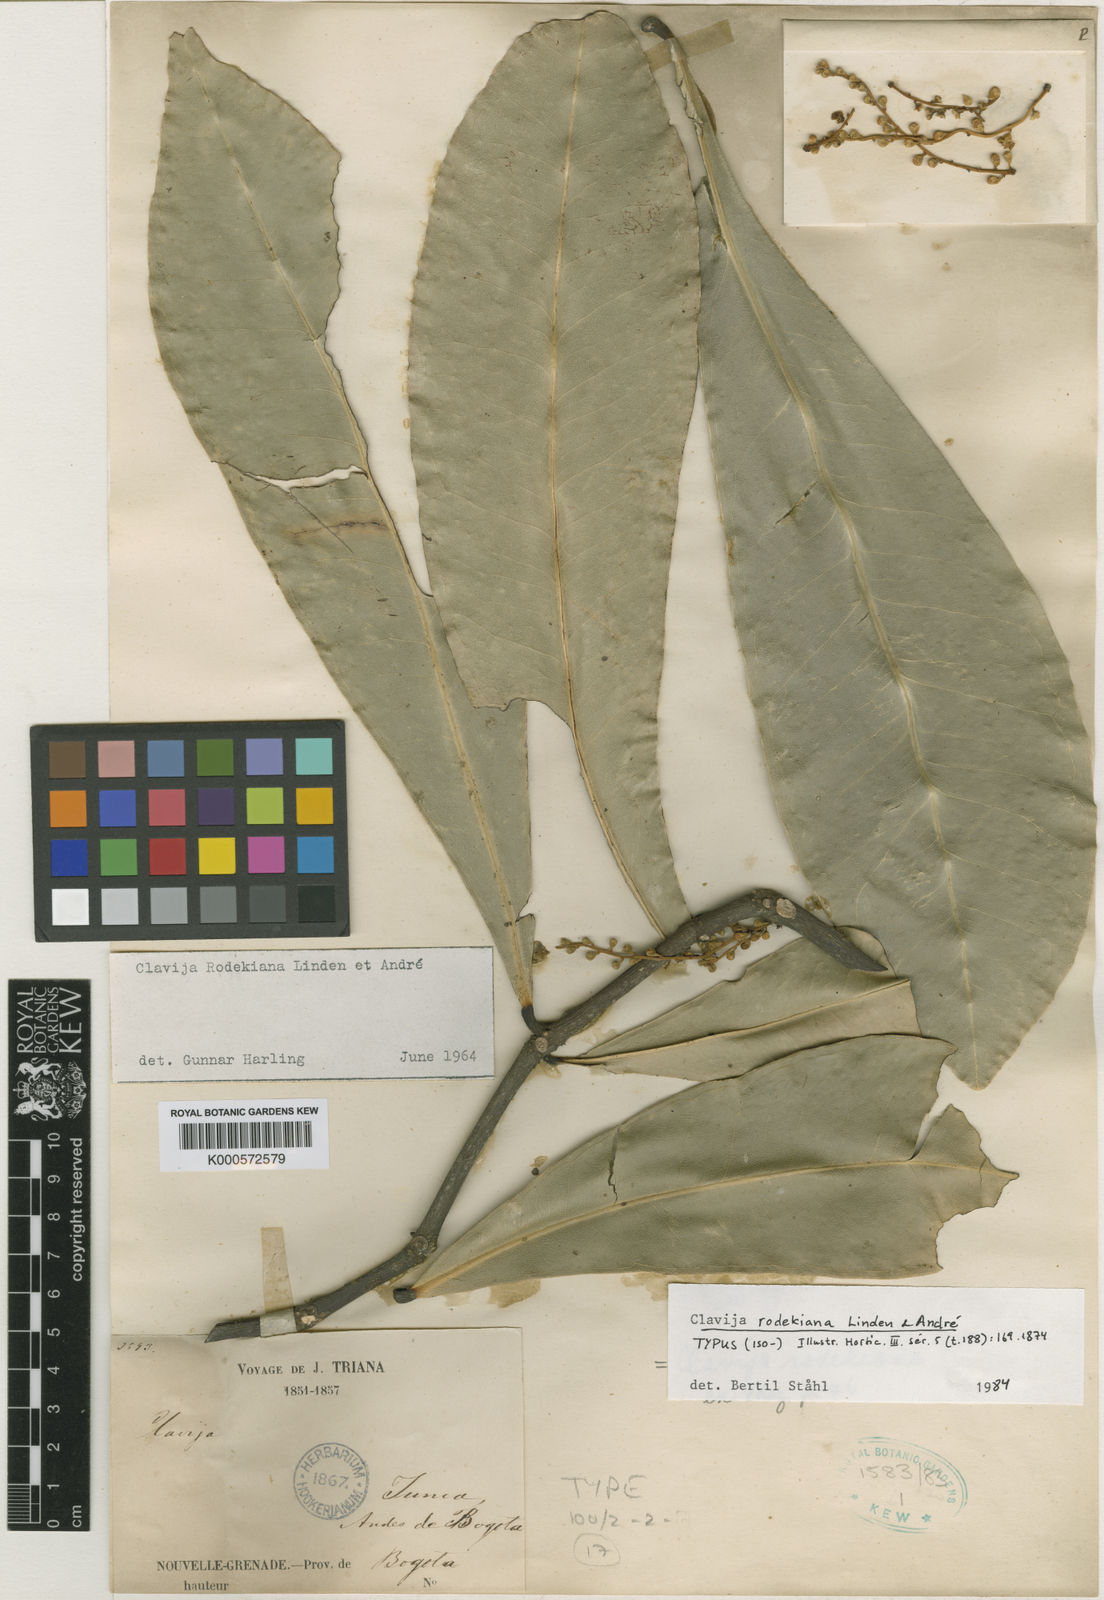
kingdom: Plantae
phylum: Tracheophyta
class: Magnoliopsida
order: Ericales
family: Primulaceae
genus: Clavija
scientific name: Clavija
